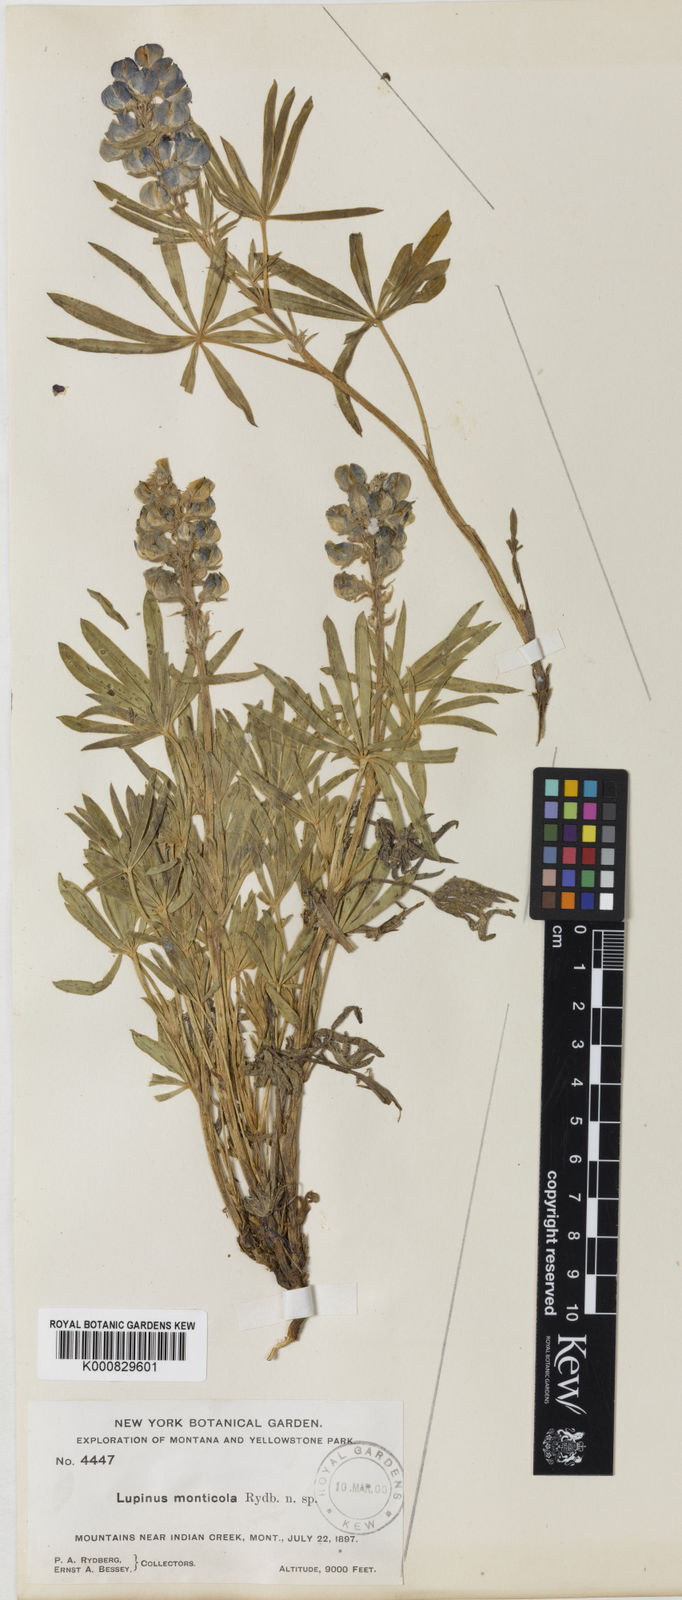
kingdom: Plantae
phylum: Tracheophyta
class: Magnoliopsida
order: Fabales
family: Fabaceae
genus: Lupinus
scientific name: Lupinus monticola
